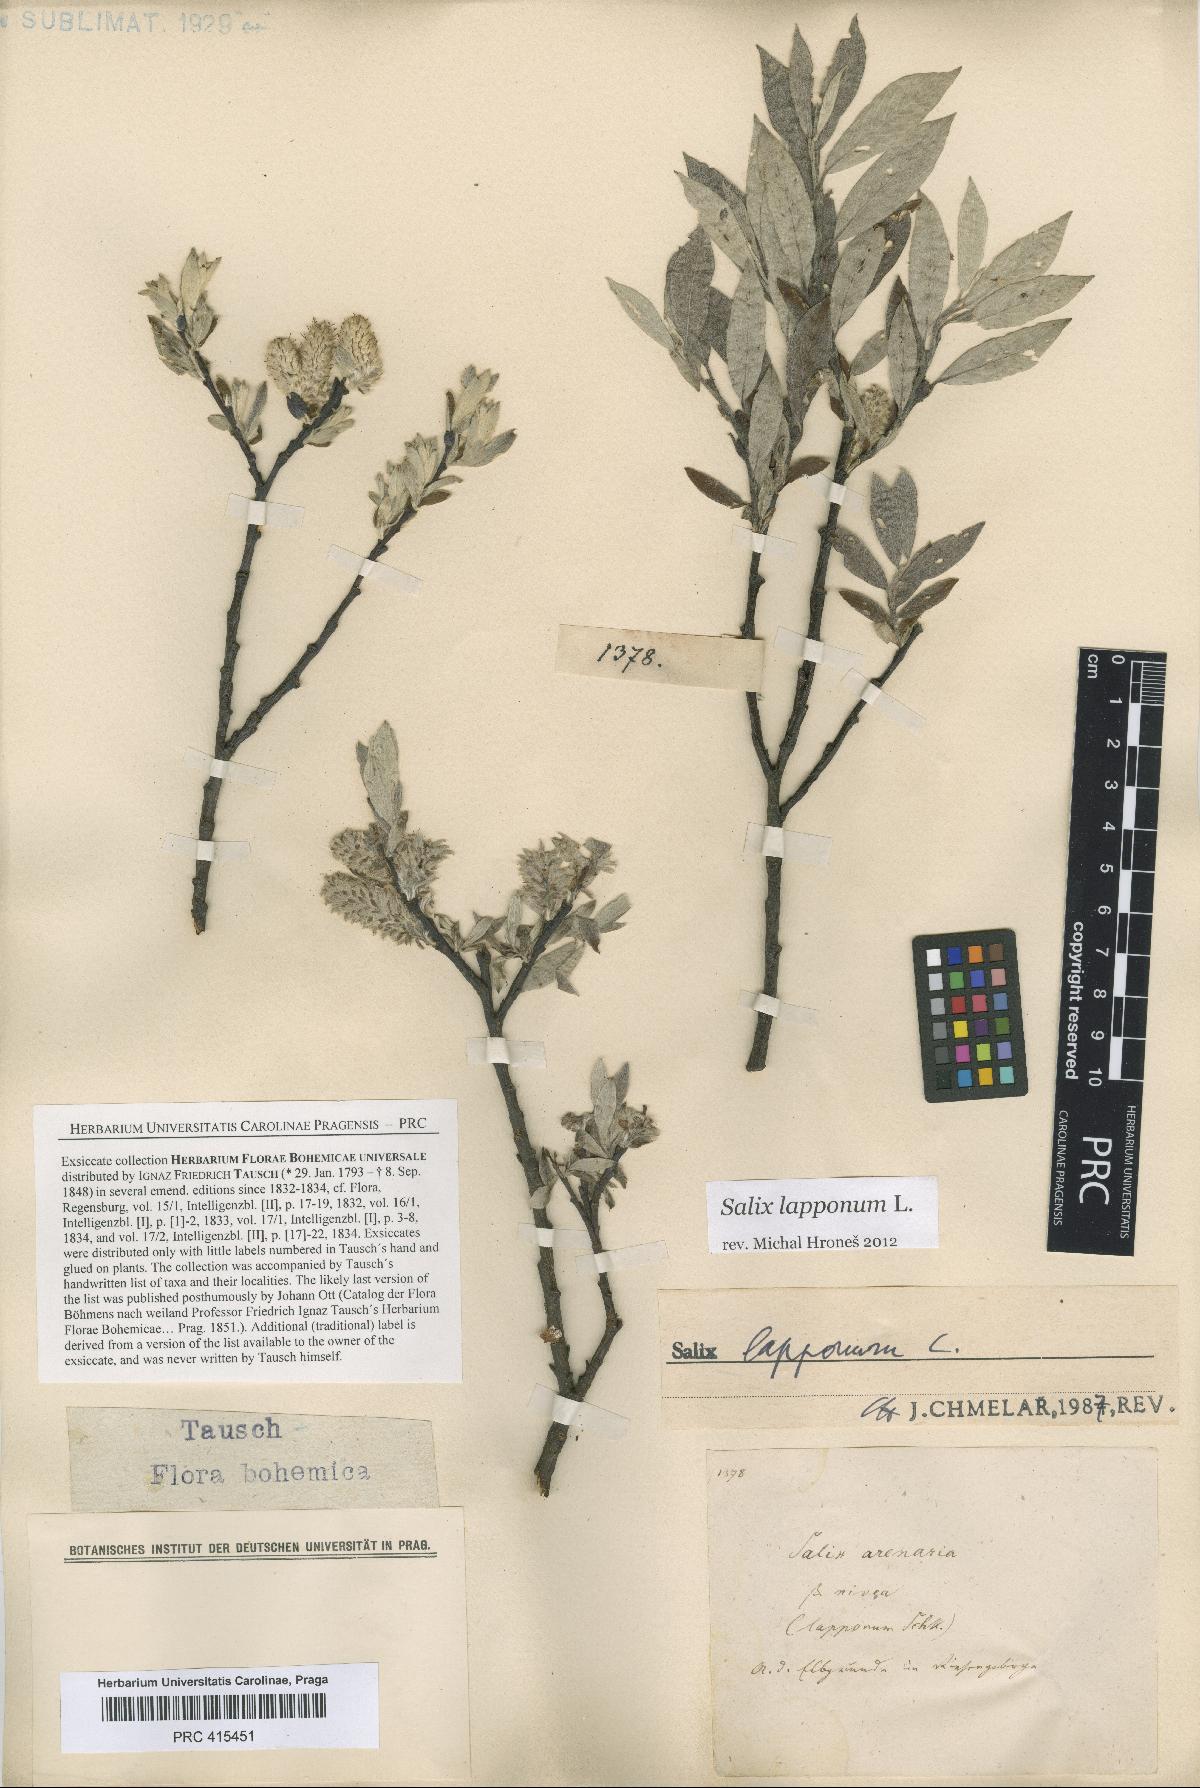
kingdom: Plantae
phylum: Tracheophyta
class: Magnoliopsida
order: Malpighiales
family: Salicaceae
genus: Salix
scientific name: Salix lapponum
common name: Downy willow
